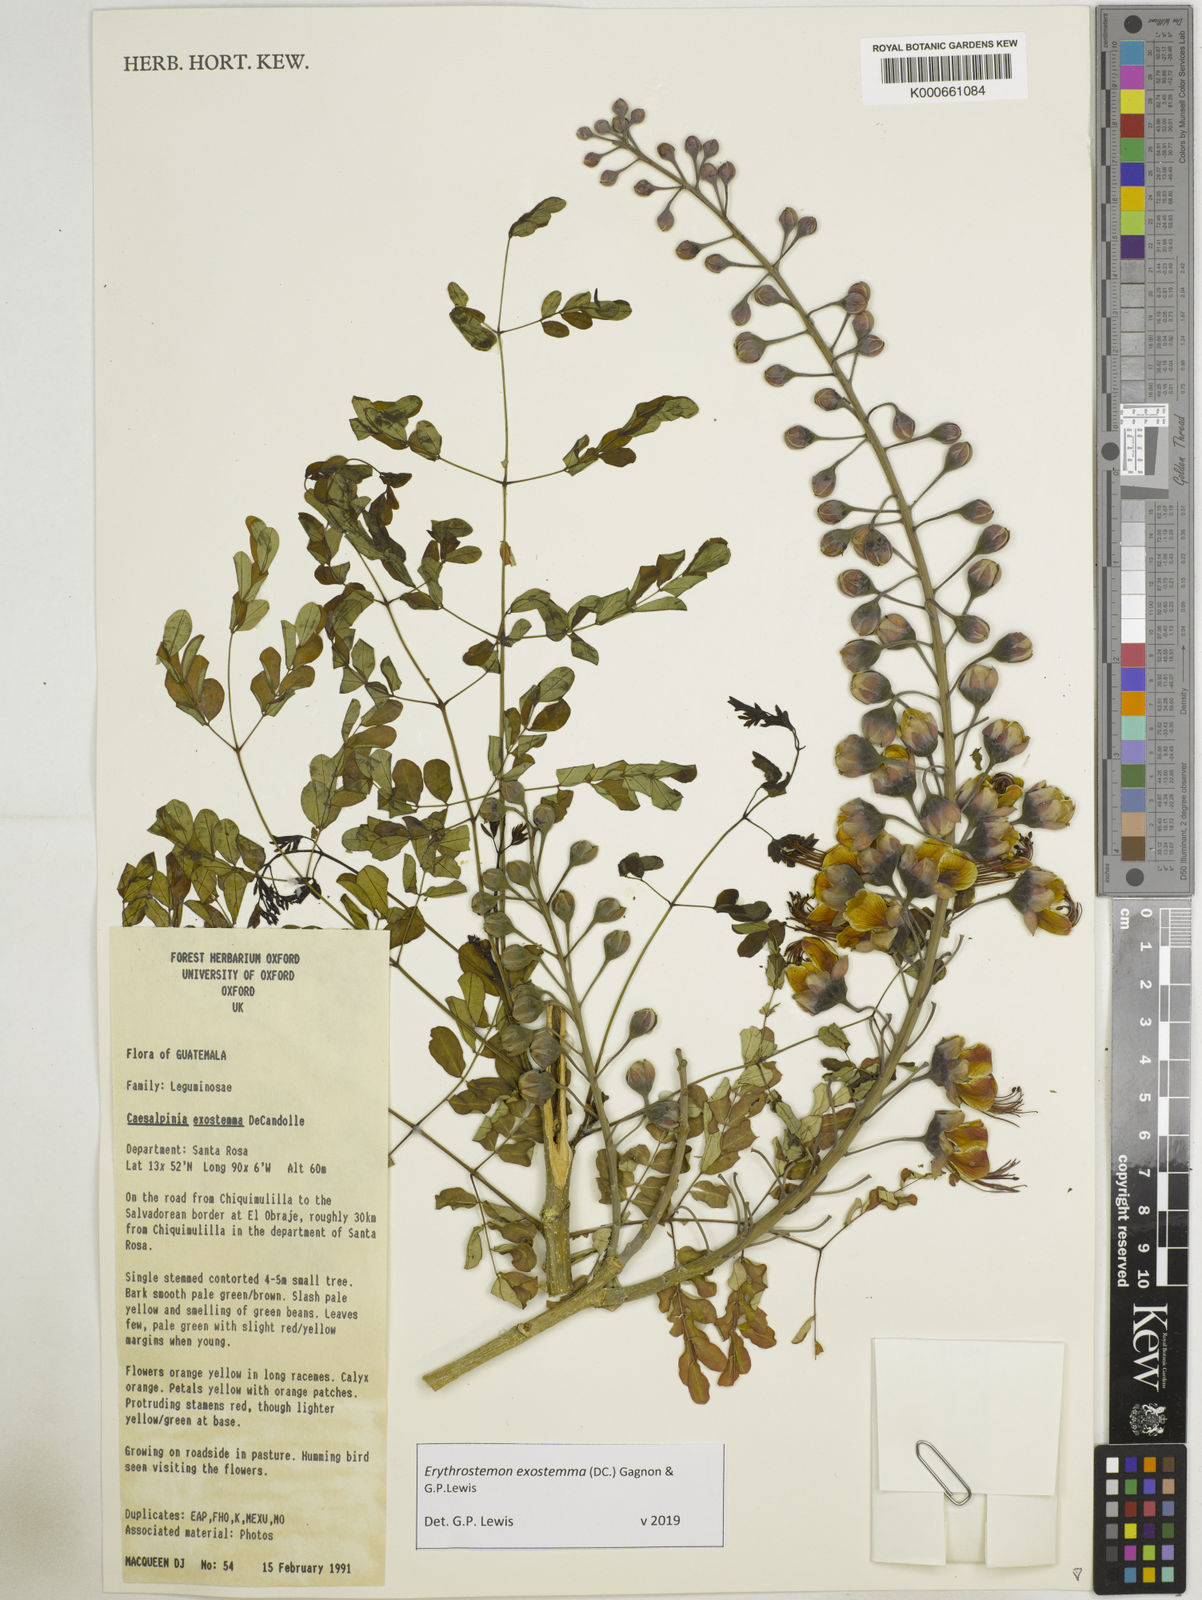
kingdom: Plantae
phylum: Tracheophyta
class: Magnoliopsida
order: Fabales
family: Fabaceae
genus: Erythrostemon
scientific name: Erythrostemon exostemma
